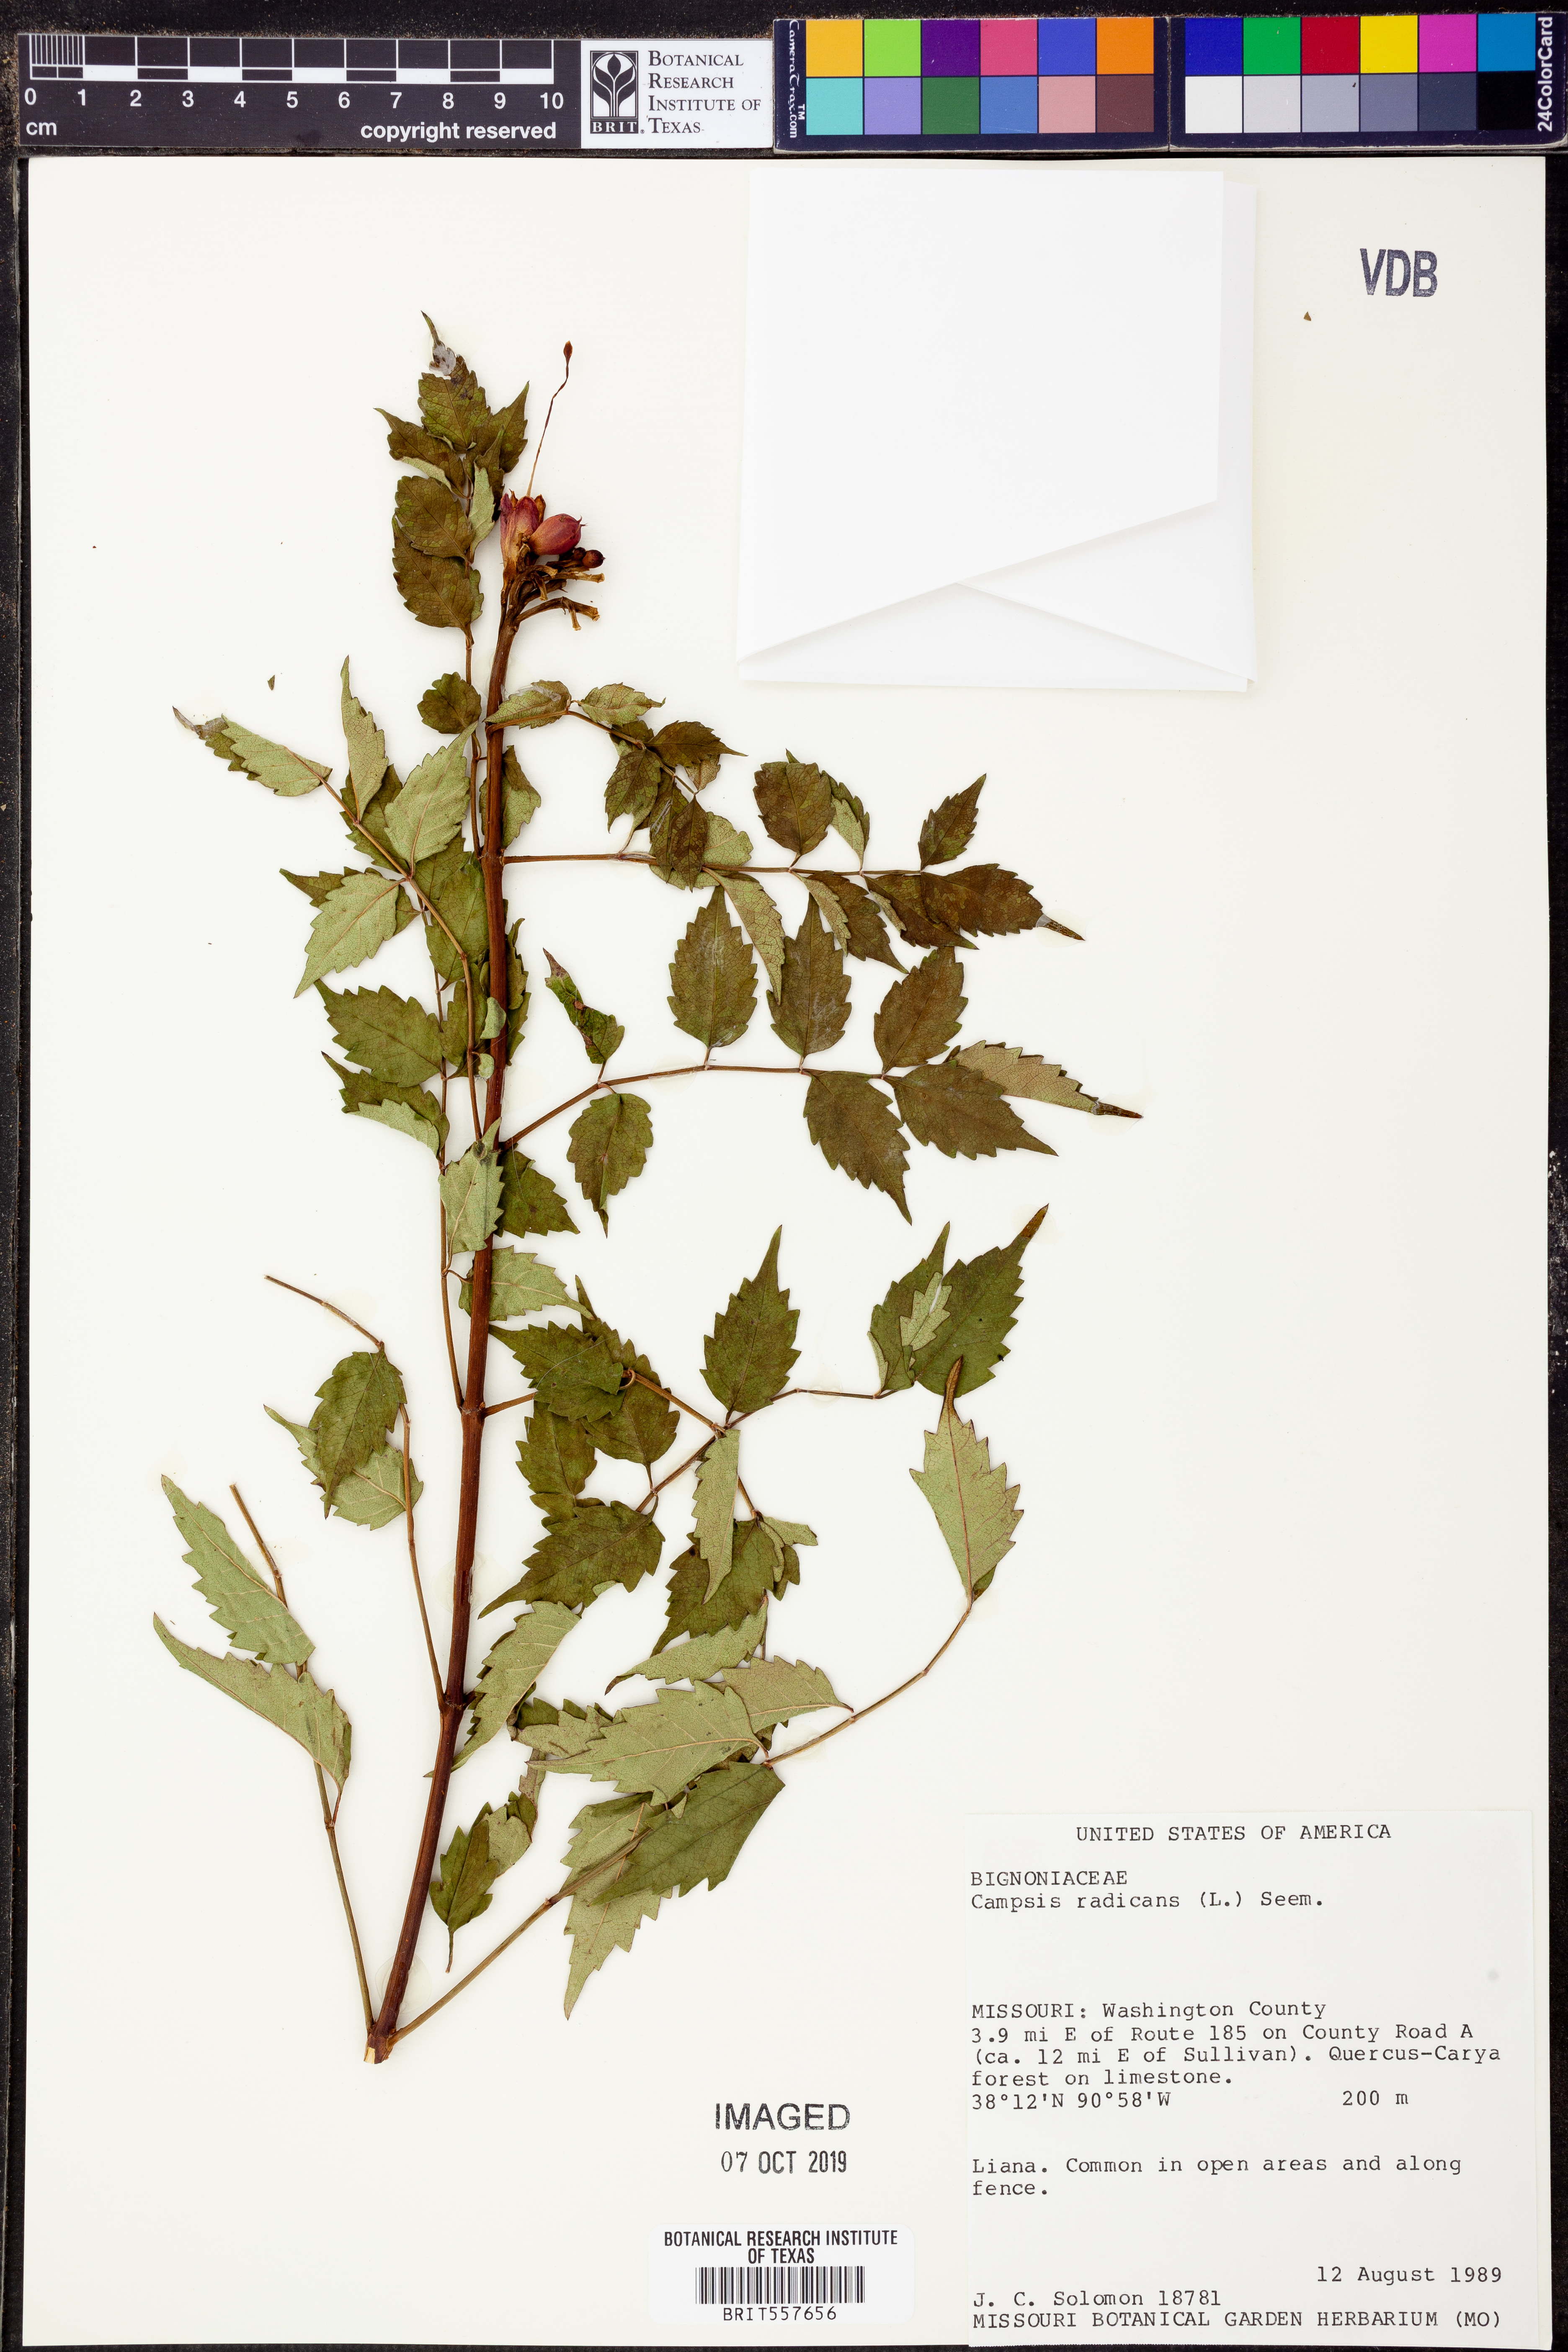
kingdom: Plantae
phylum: Tracheophyta
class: Magnoliopsida
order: Lamiales
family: Bignoniaceae
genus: Campsis
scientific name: Campsis radicans
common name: Trumpet-creeper
